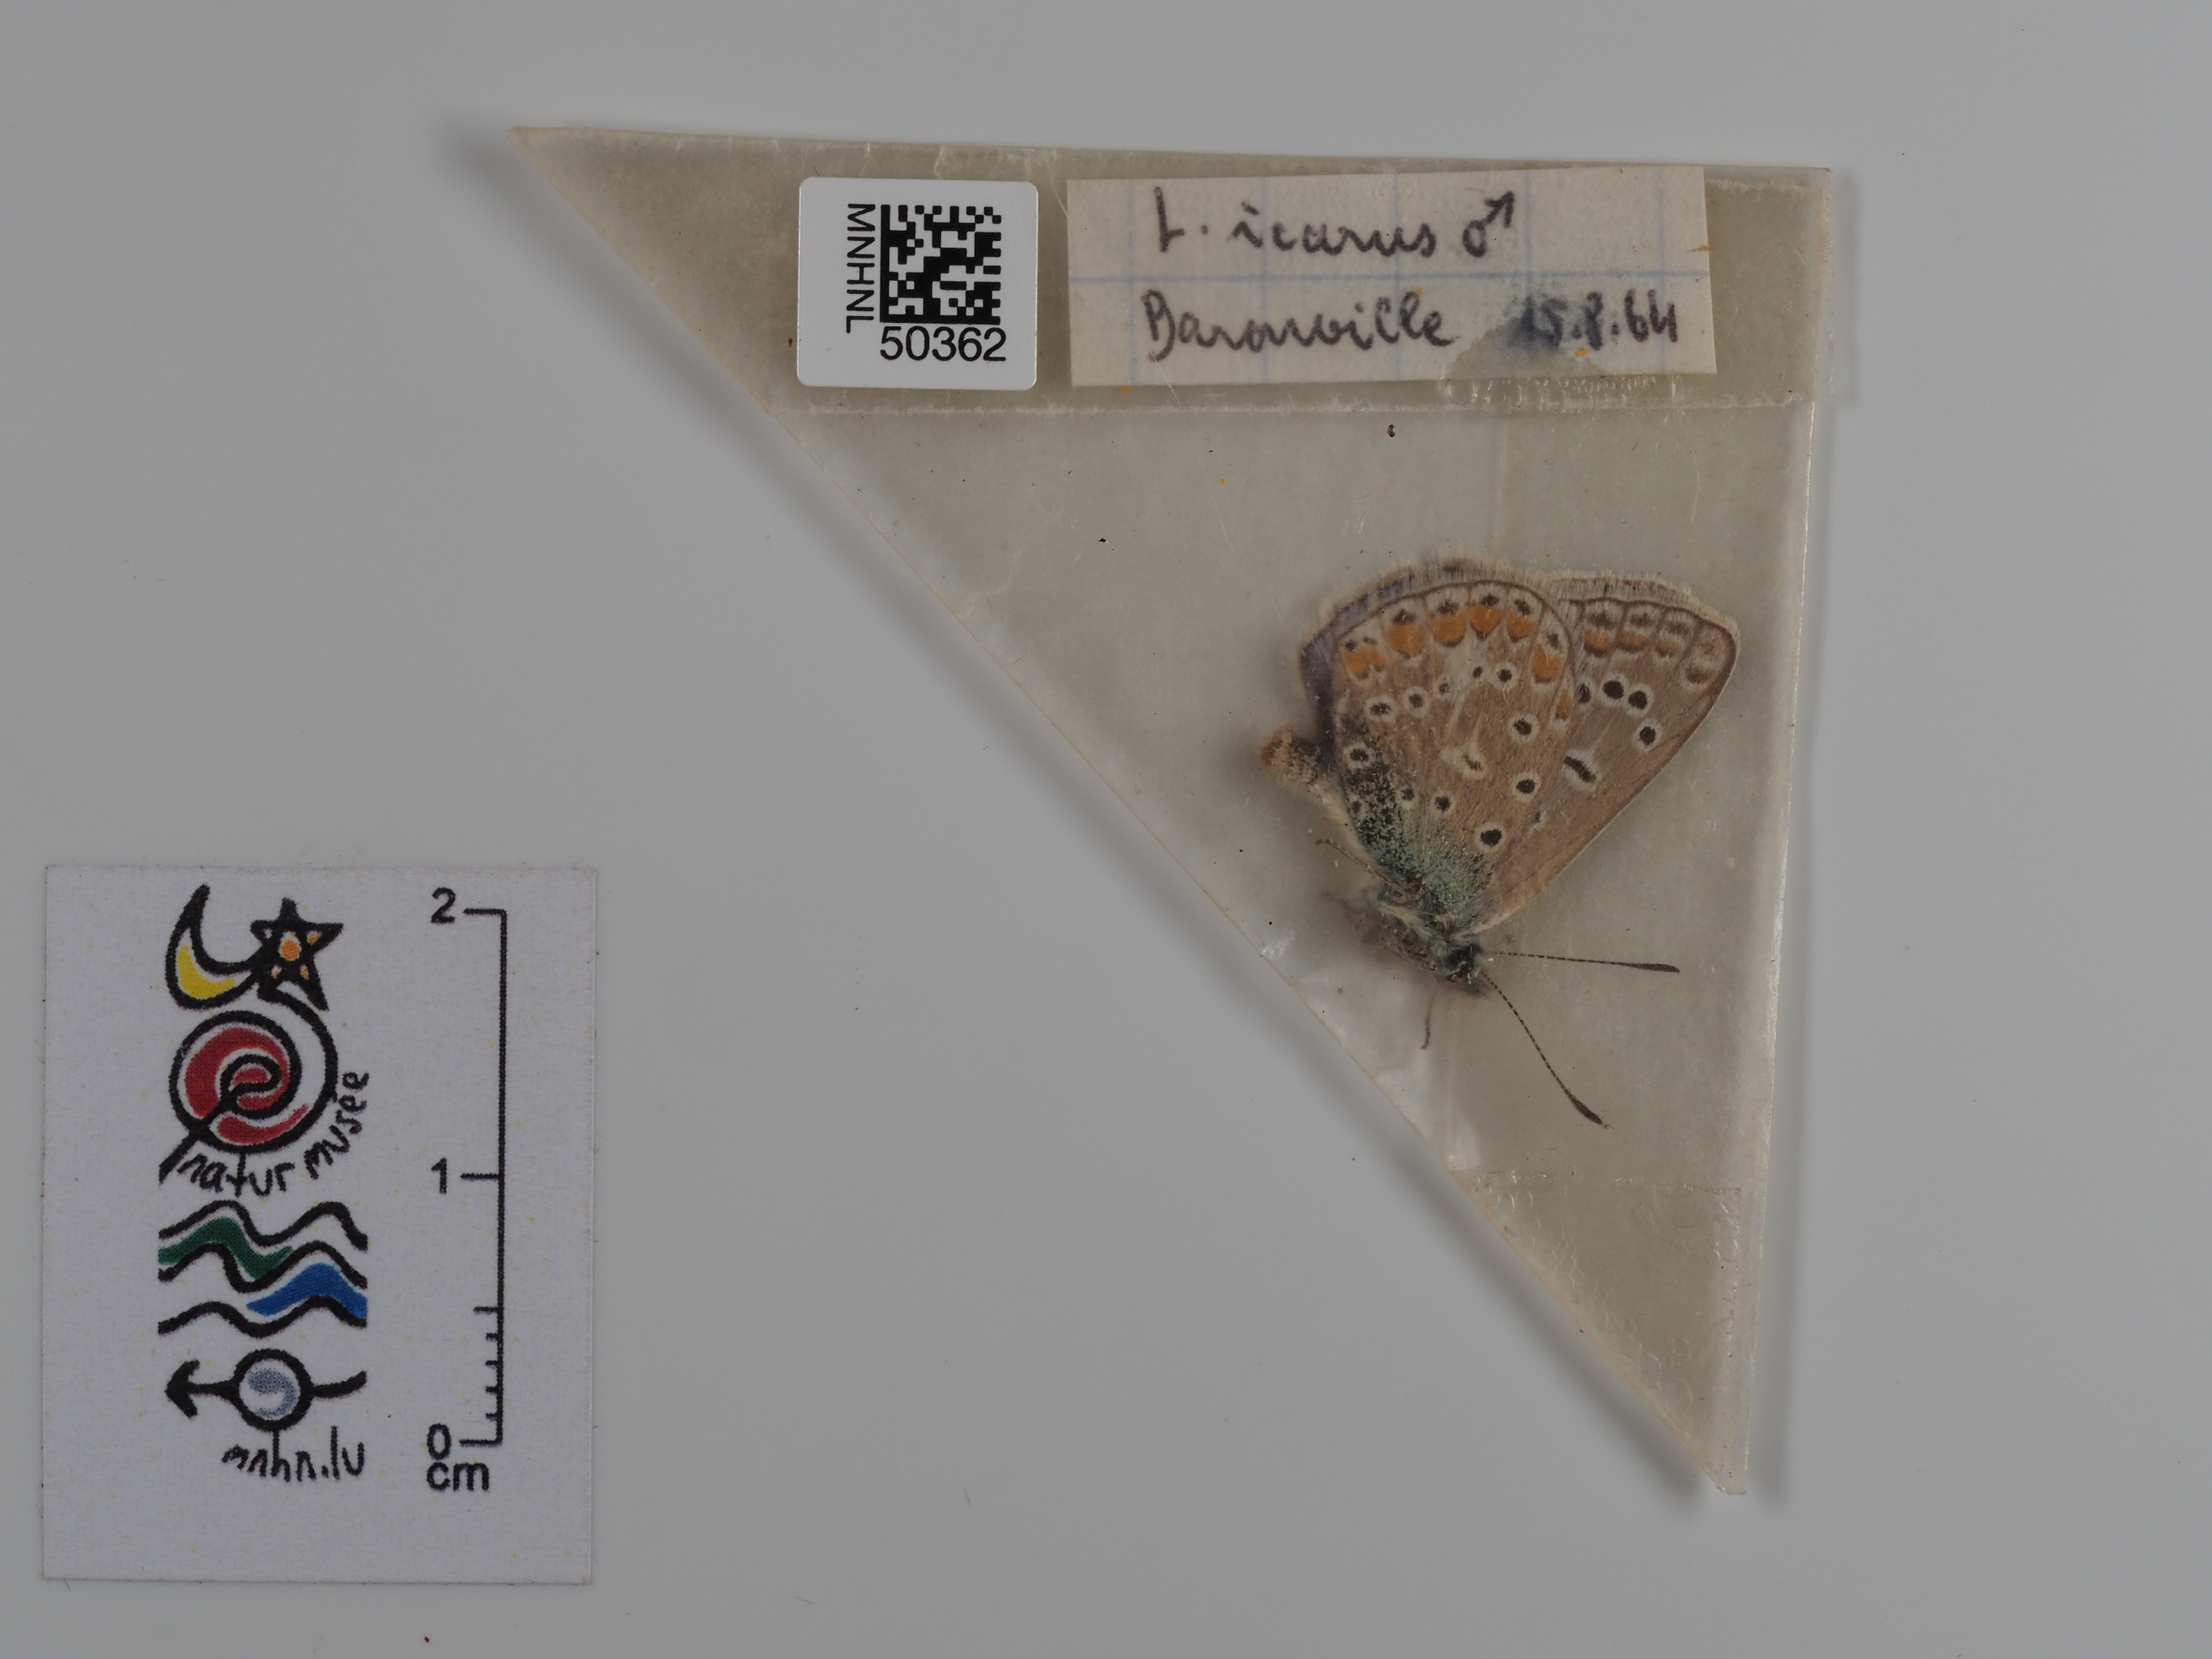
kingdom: Animalia
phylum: Arthropoda
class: Insecta
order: Lepidoptera
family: Lycaenidae
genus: Polyommatus
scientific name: Polyommatus icarus
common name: Common blue
